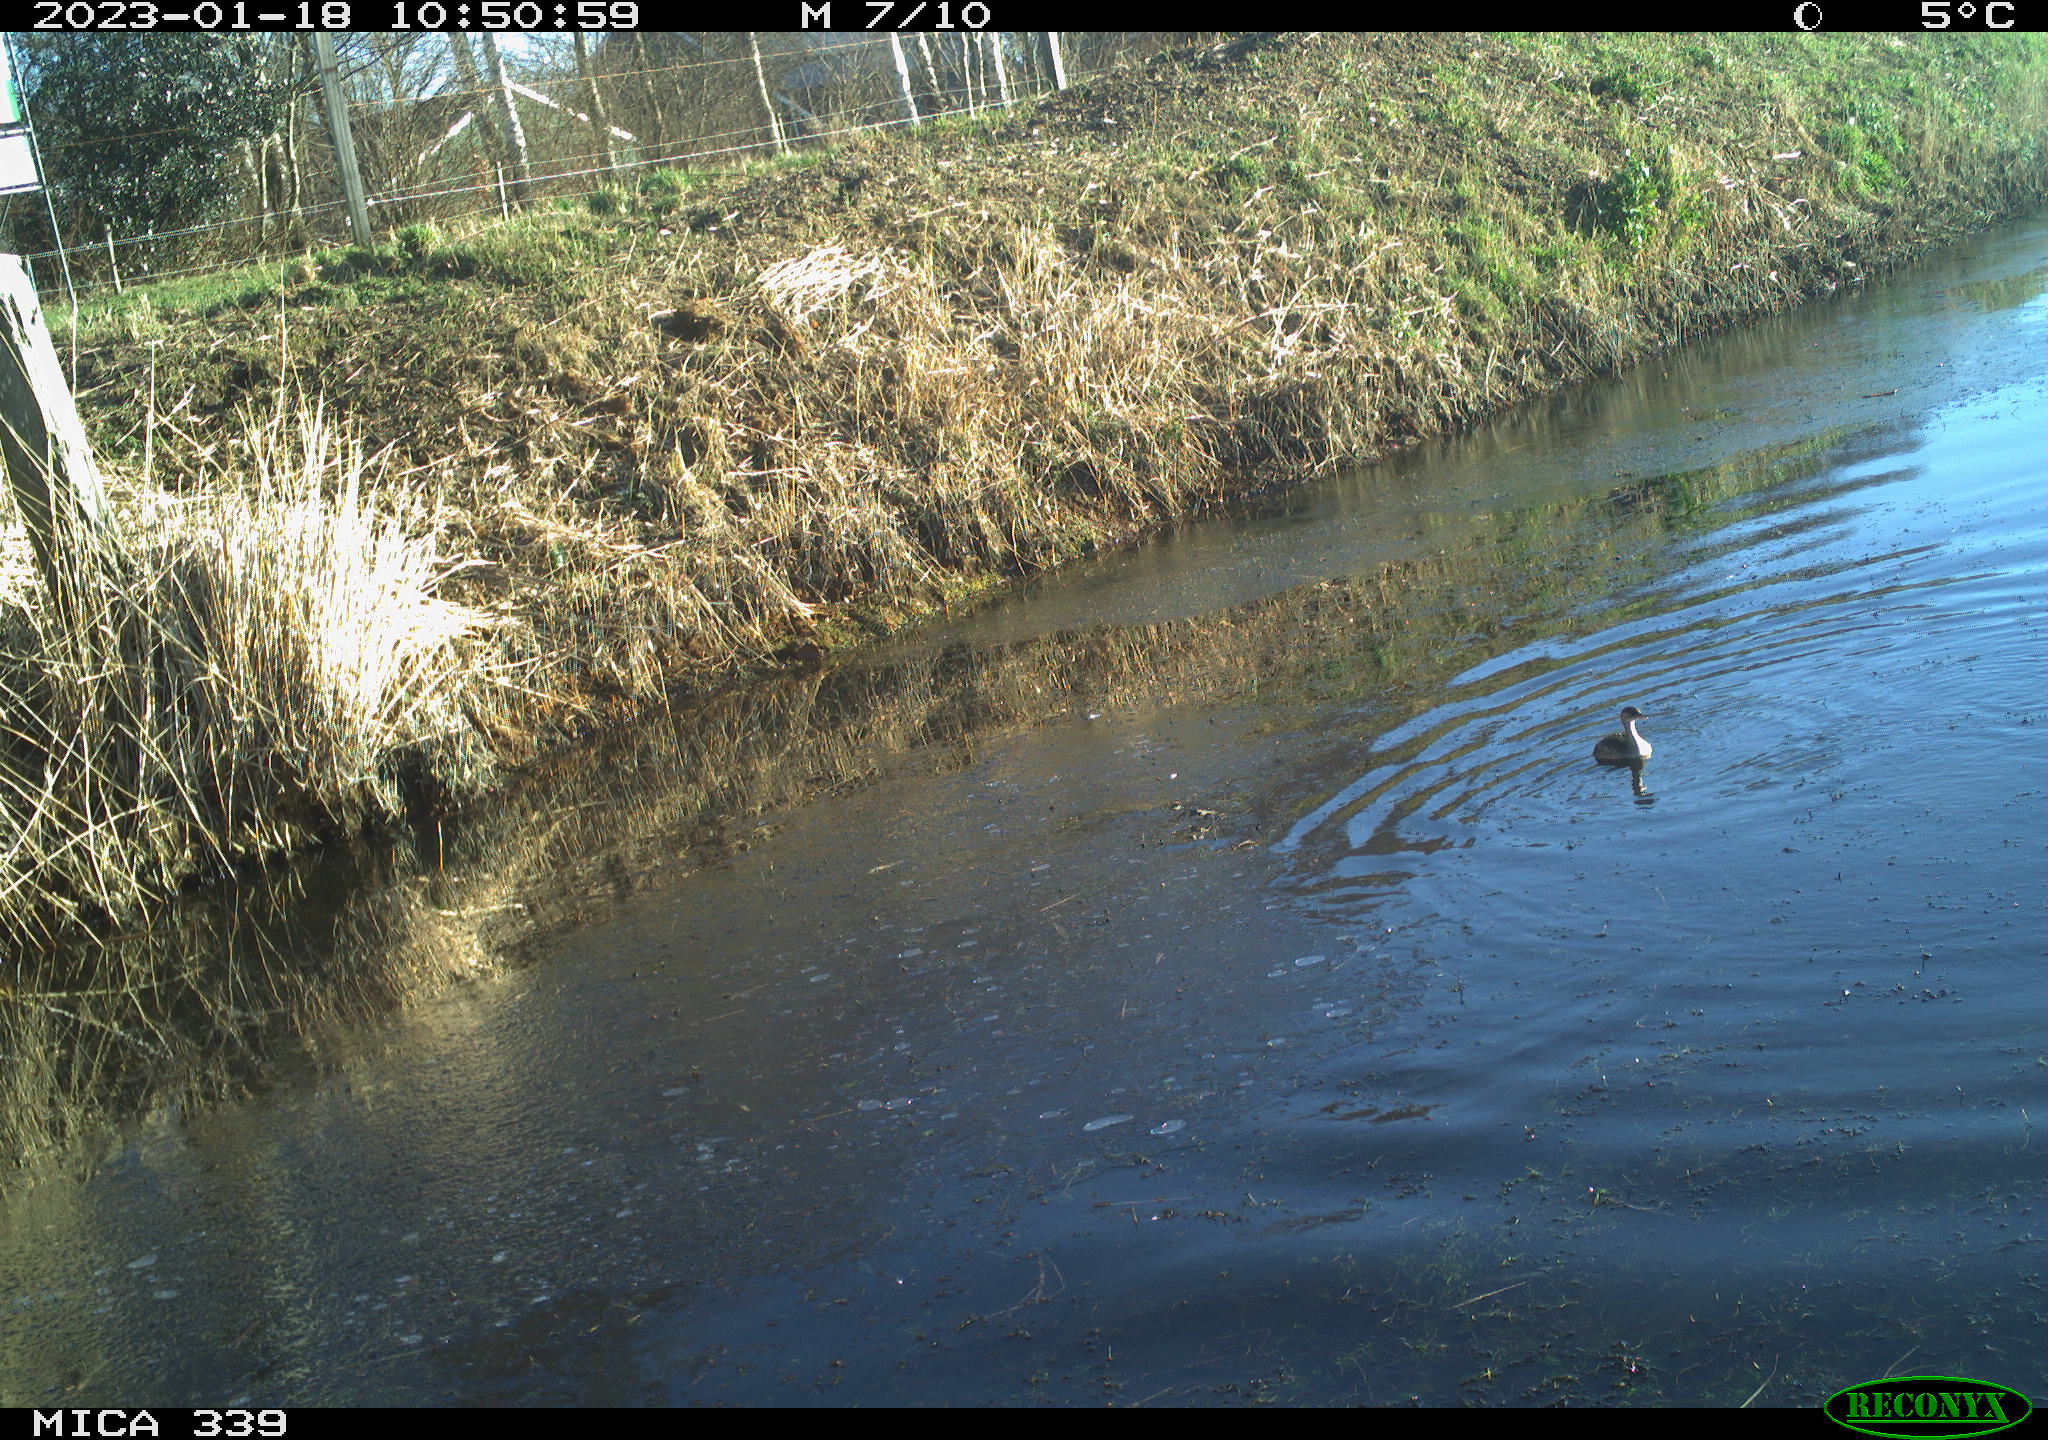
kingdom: Animalia
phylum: Chordata
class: Aves
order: Podicipediformes
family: Podicipedidae
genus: Tachybaptus
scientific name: Tachybaptus ruficollis
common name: Little grebe
